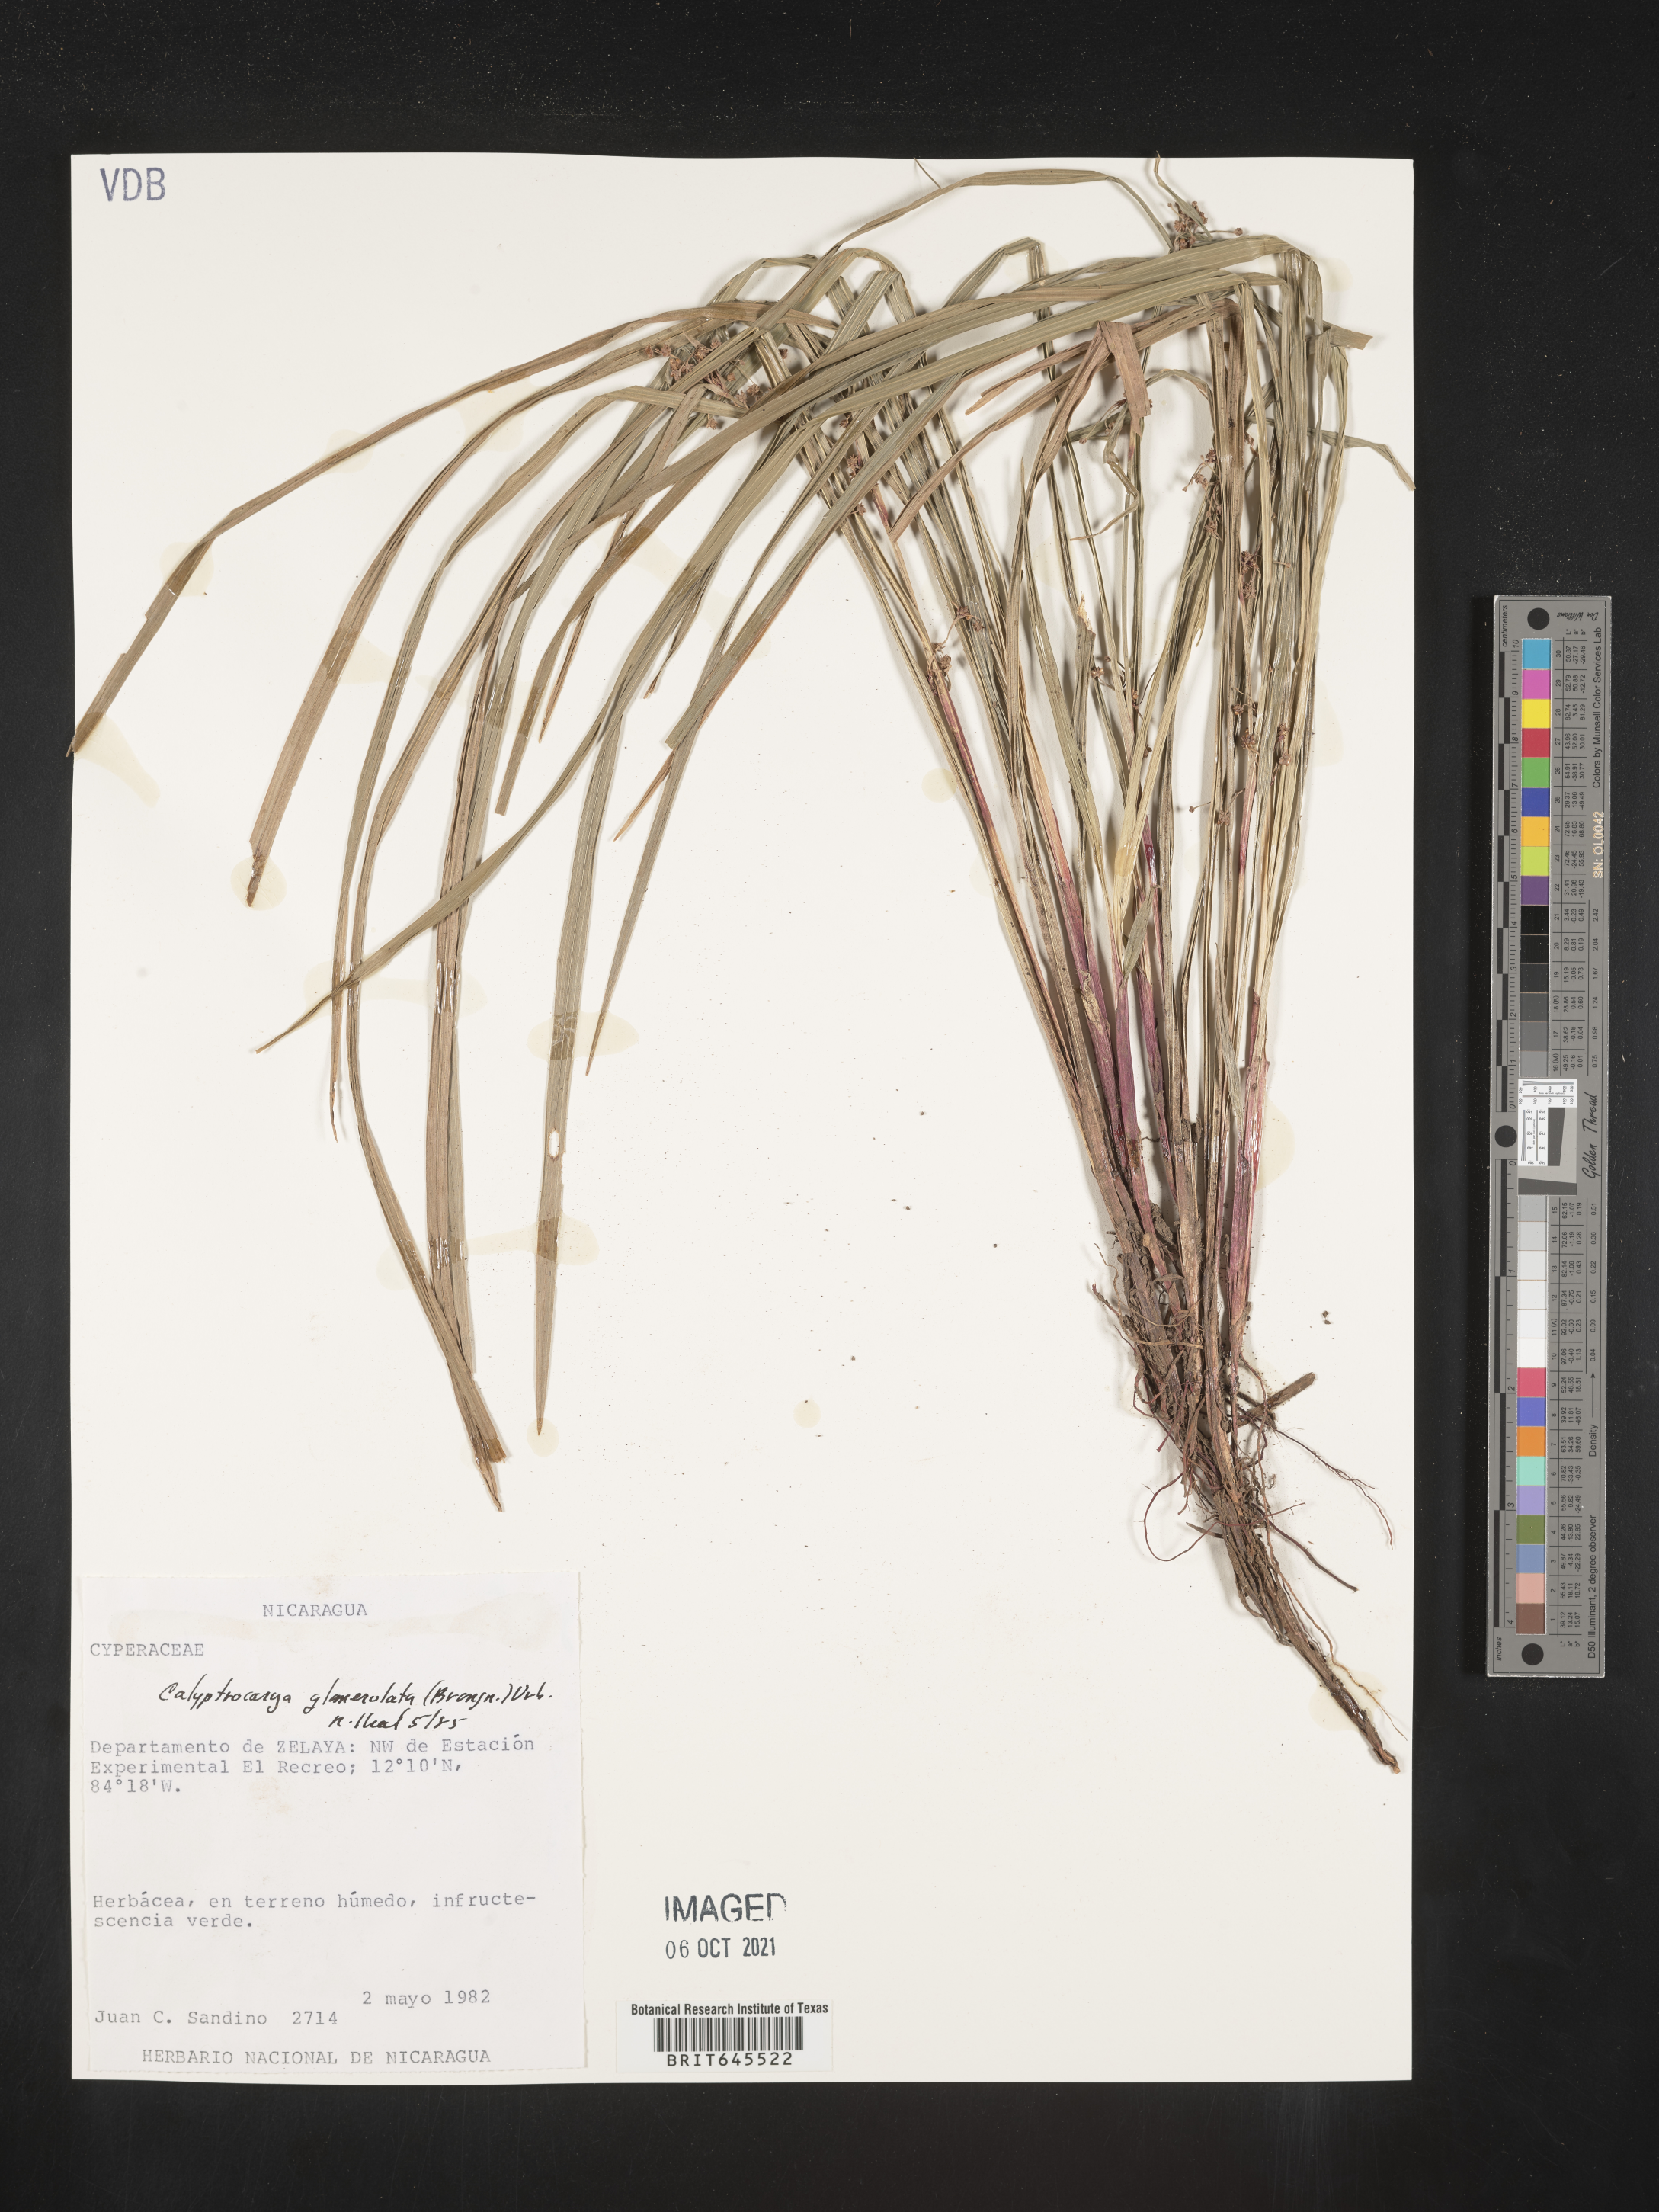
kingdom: Plantae
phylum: Tracheophyta
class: Liliopsida
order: Poales
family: Cyperaceae
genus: Calyptrocarya
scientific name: Calyptrocarya glomerulata
